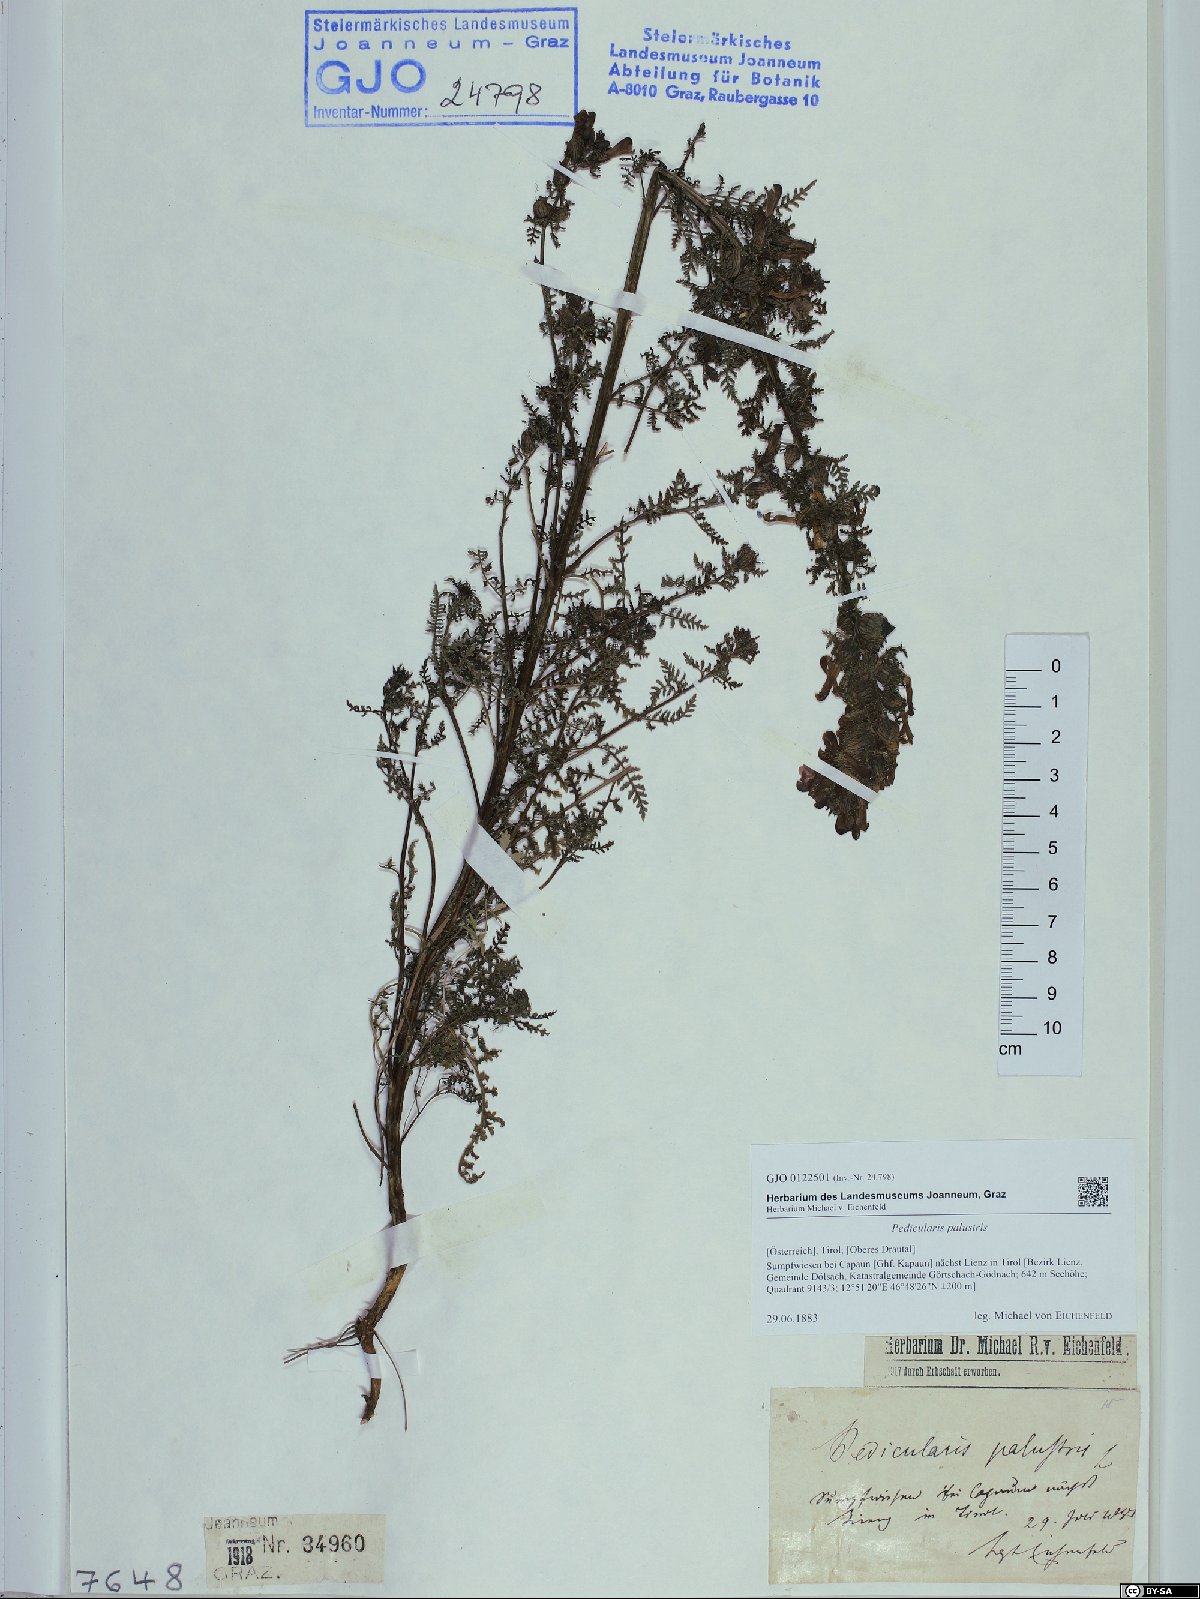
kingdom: Plantae
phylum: Tracheophyta
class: Magnoliopsida
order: Lamiales
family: Orobanchaceae
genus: Pedicularis
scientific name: Pedicularis palustris
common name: Marsh lousewort
